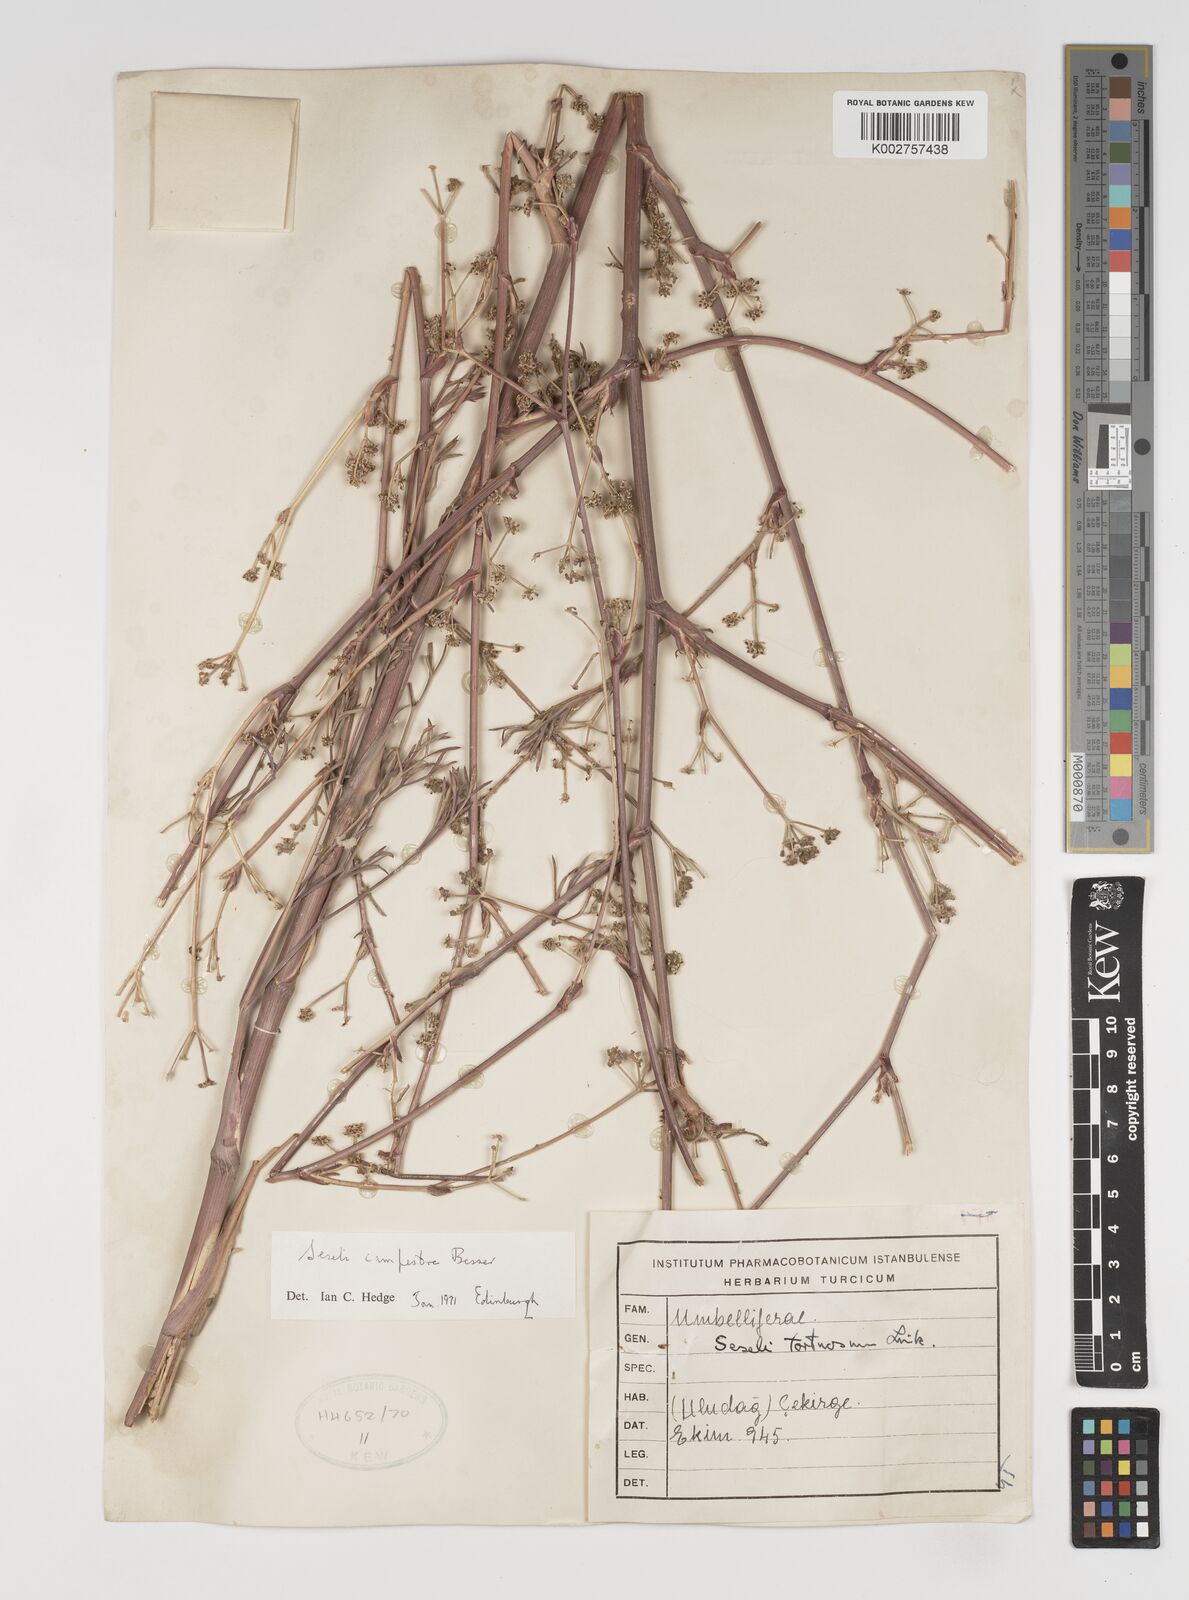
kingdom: Plantae
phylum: Tracheophyta
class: Magnoliopsida
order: Apiales
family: Apiaceae
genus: Seseli
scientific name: Seseli campestre
